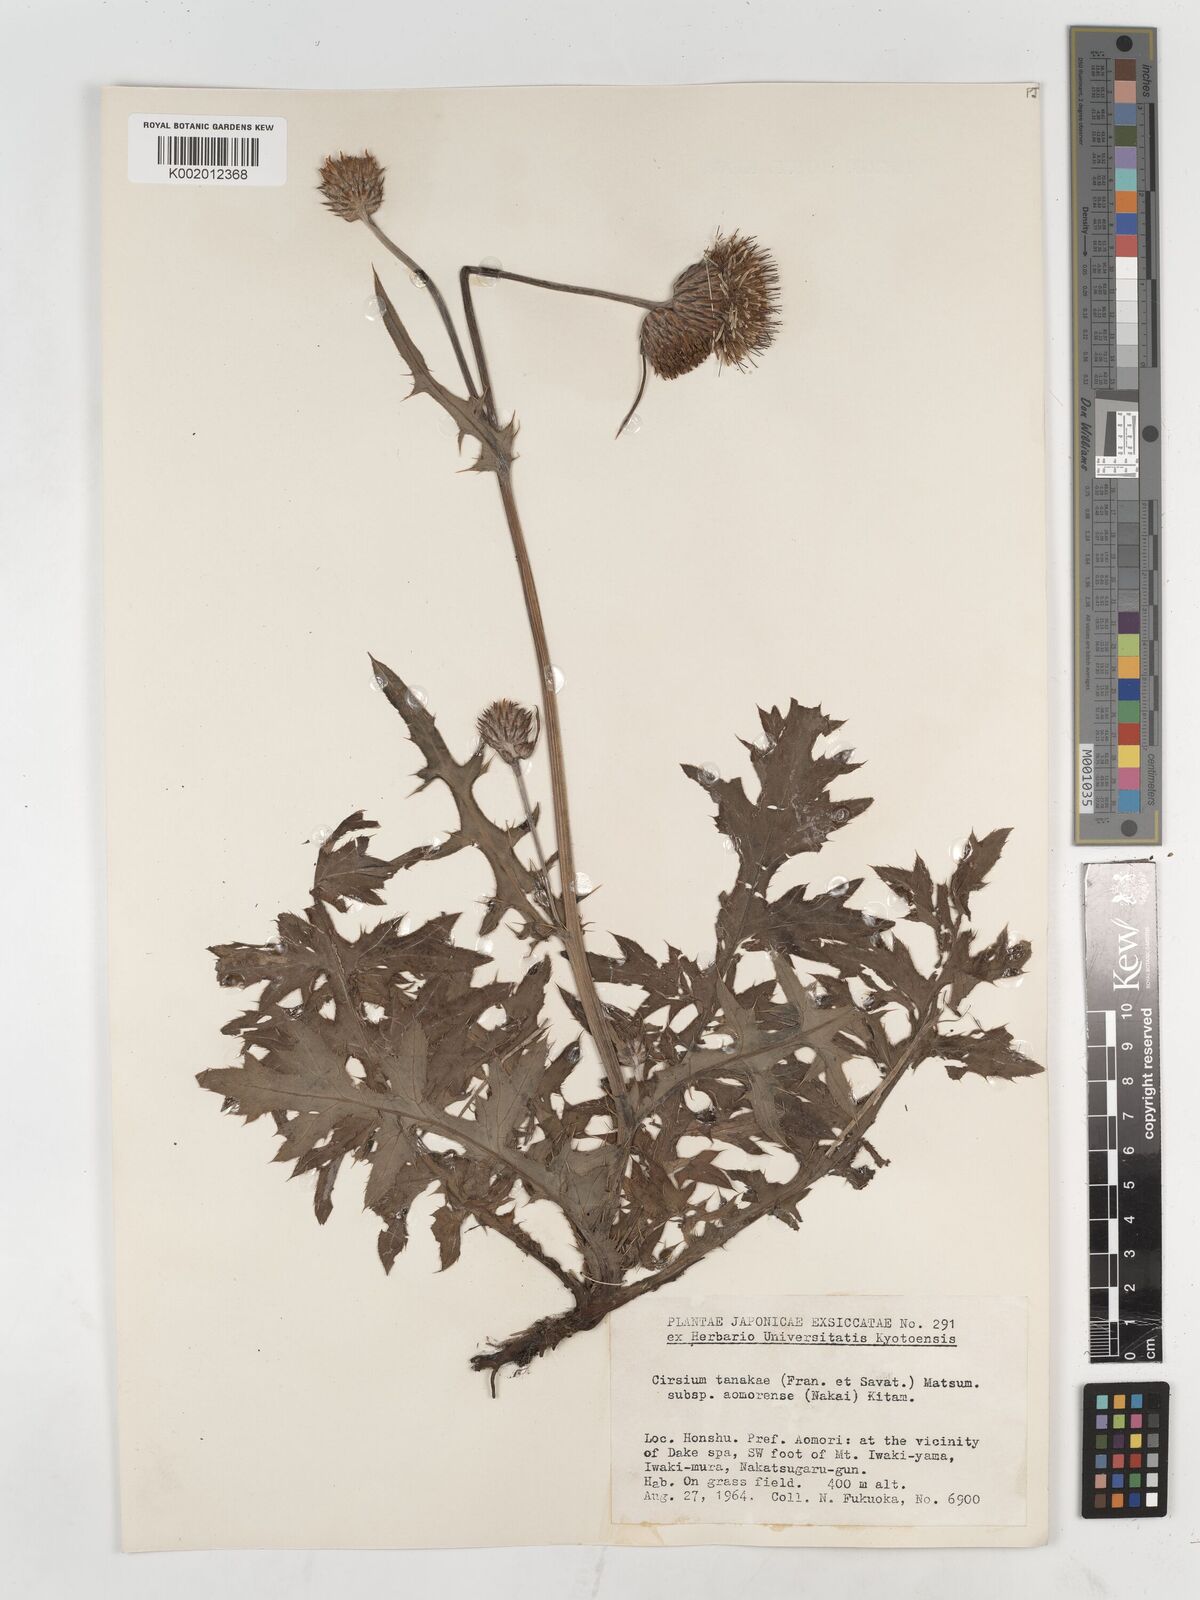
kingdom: Plantae
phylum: Tracheophyta
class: Magnoliopsida
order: Asterales
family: Asteraceae
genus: Cirsium
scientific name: Cirsium nipponicum
